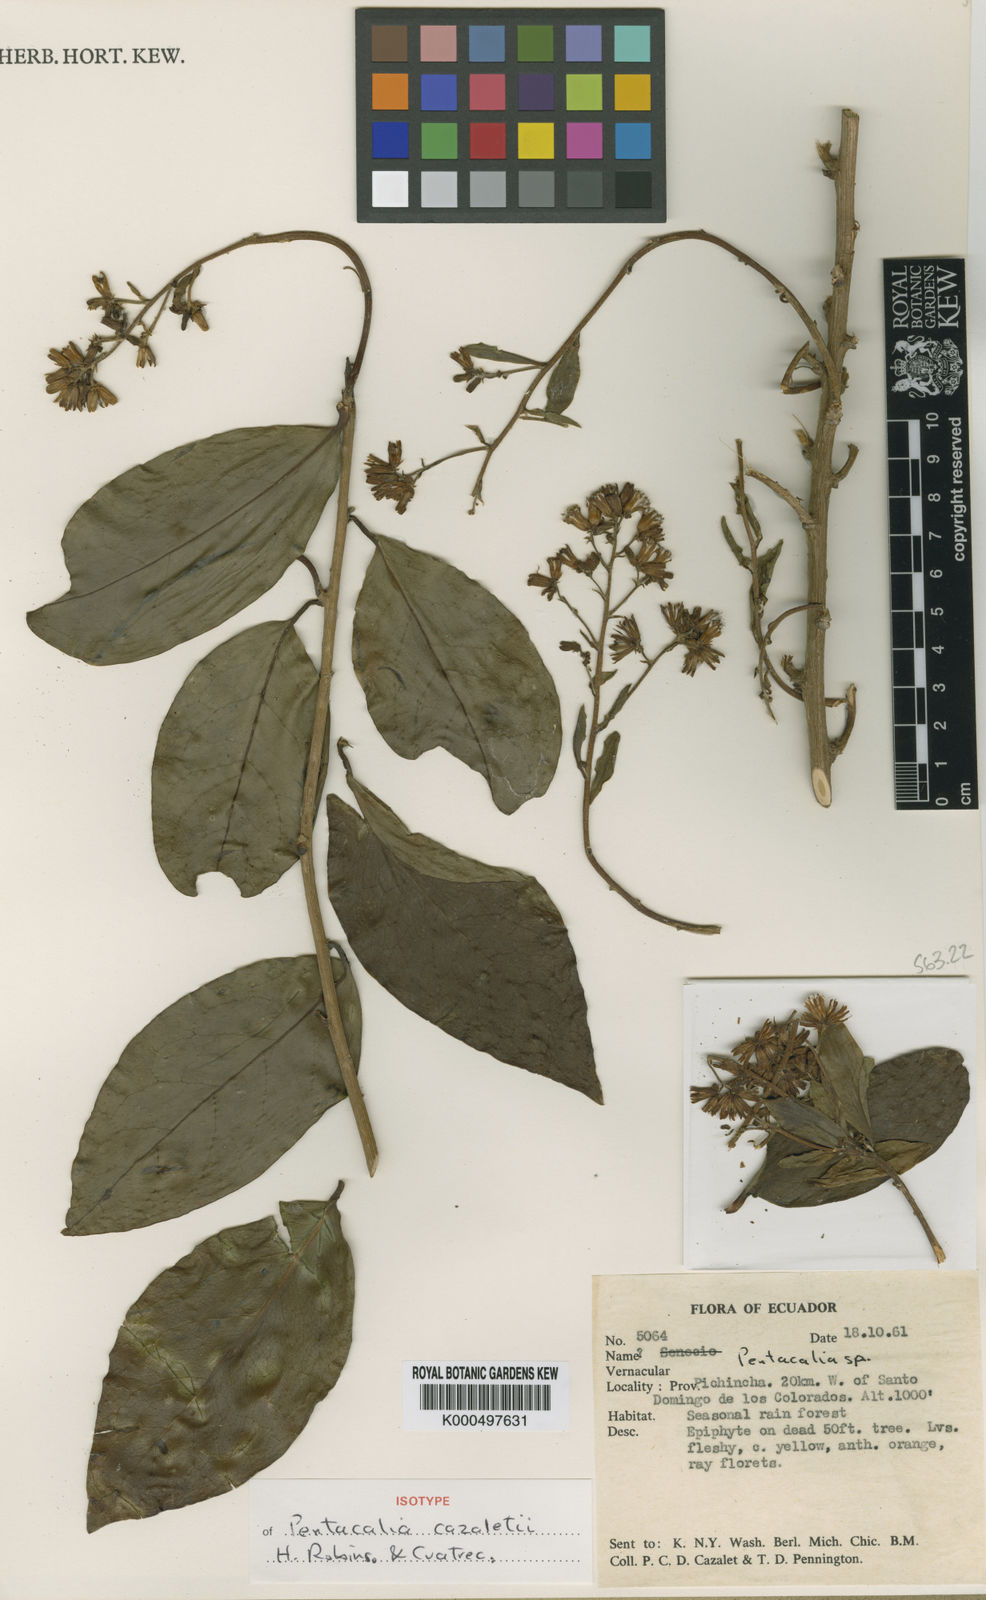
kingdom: Plantae
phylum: Tracheophyta
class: Magnoliopsida
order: Asterales
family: Asteraceae
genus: Pentacalia
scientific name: Pentacalia cazaletii
